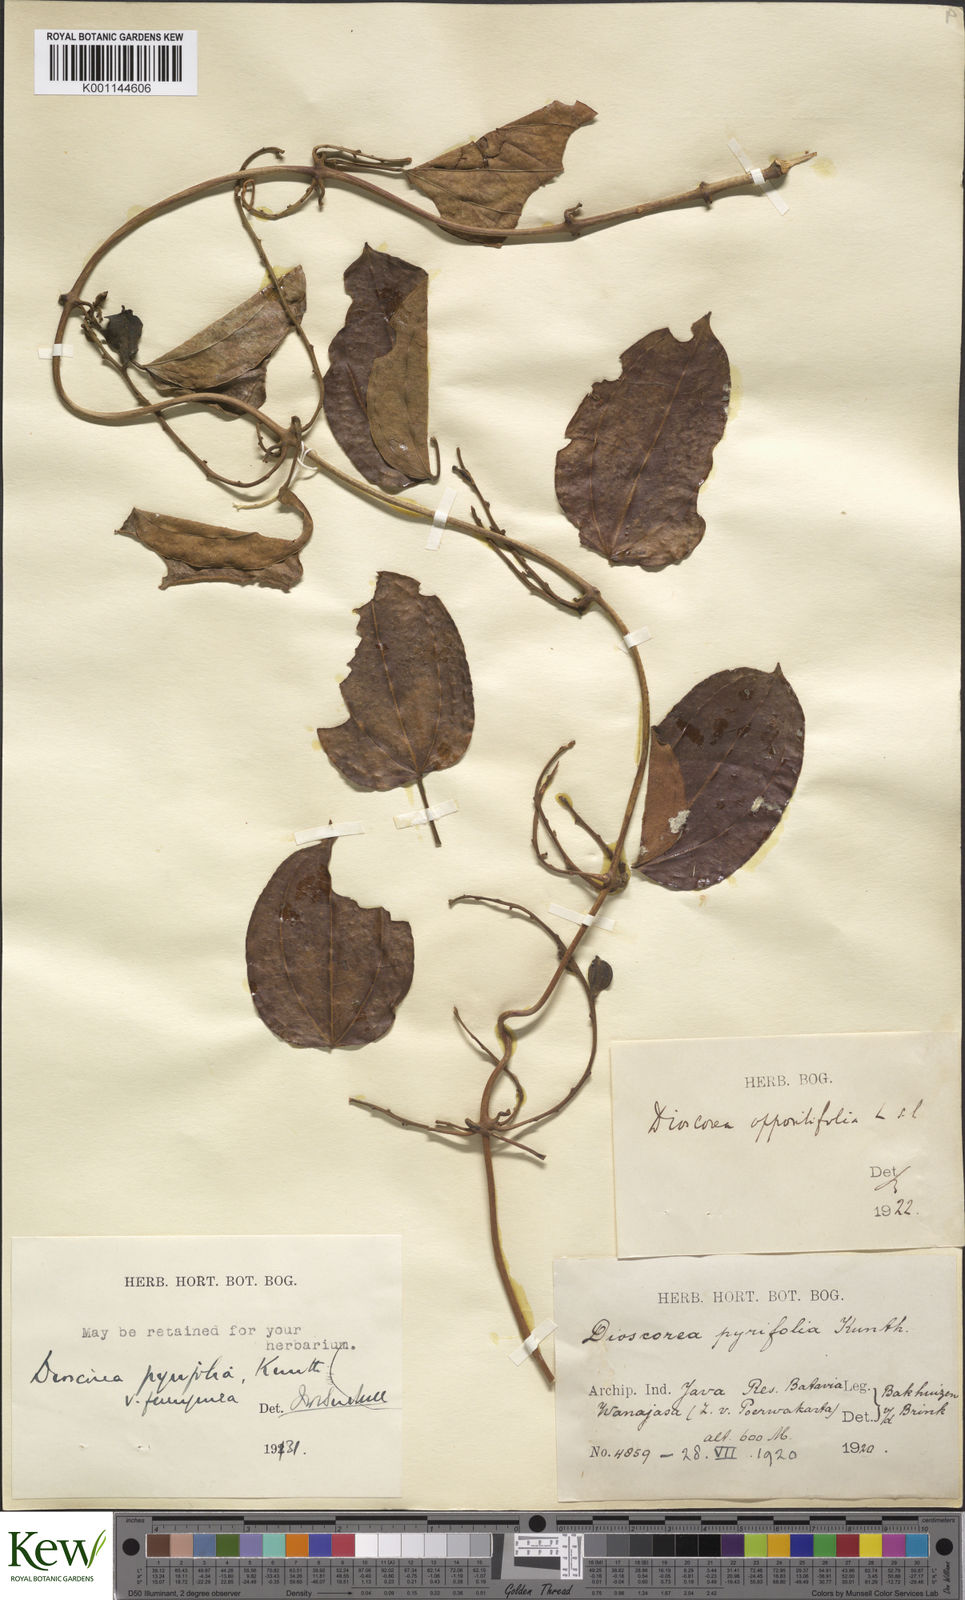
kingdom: Plantae
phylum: Tracheophyta
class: Liliopsida
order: Dioscoreales
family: Dioscoreaceae
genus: Dioscorea
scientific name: Dioscorea pyrifolia
